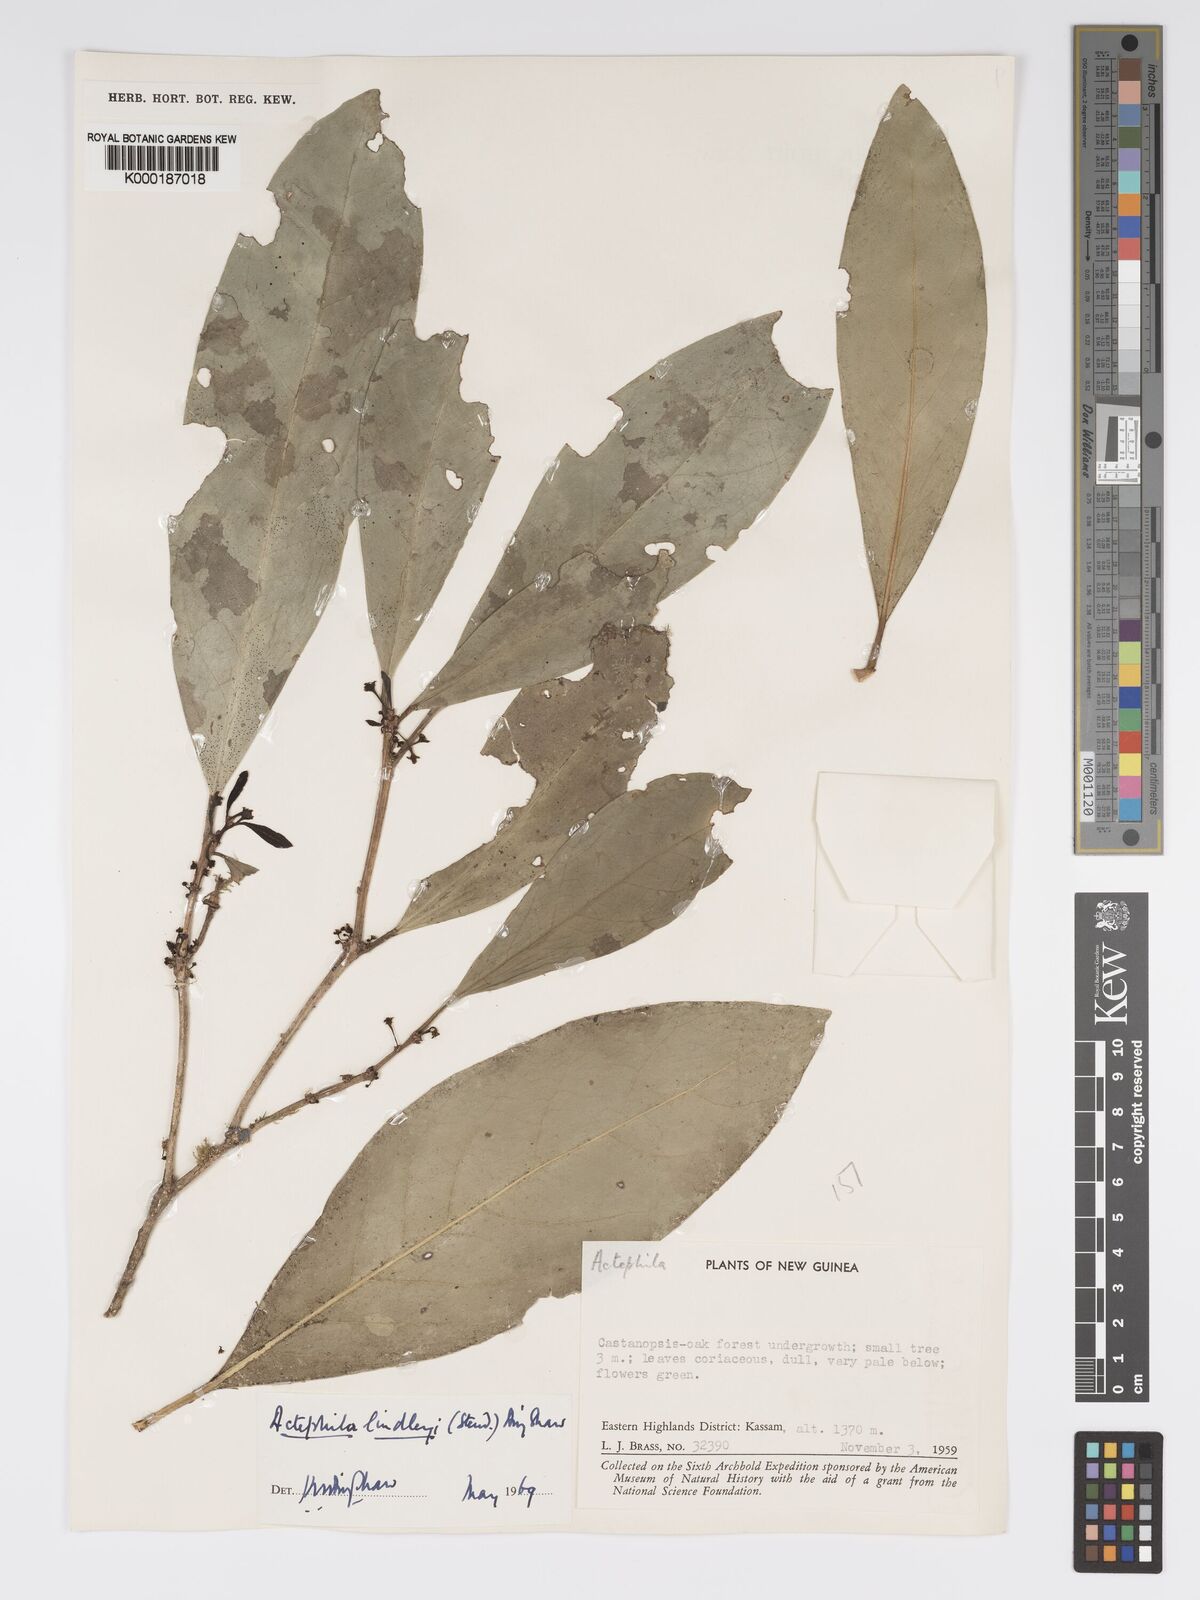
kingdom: Plantae
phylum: Tracheophyta
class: Magnoliopsida
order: Malpighiales
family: Phyllanthaceae
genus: Actephila
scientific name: Actephila lindleyi
